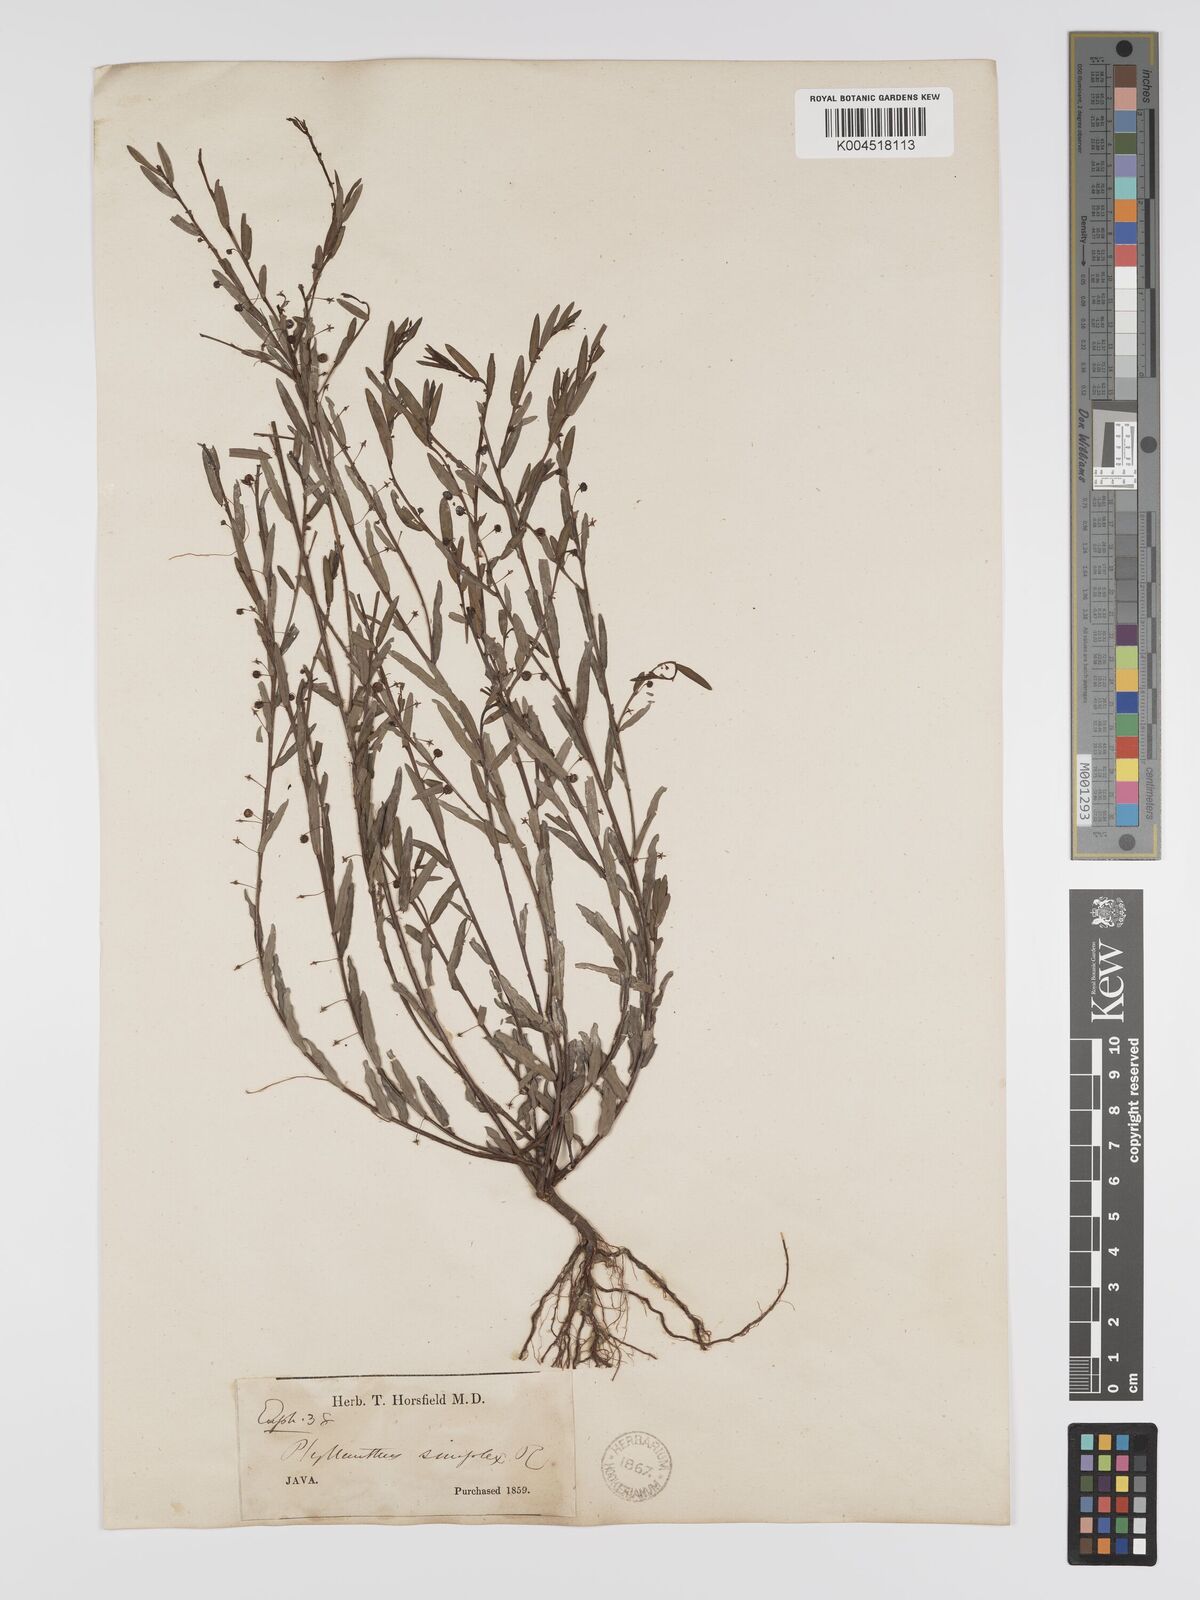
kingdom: Plantae
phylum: Tracheophyta
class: Magnoliopsida
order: Malpighiales
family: Phyllanthaceae
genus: Phyllanthus
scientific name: Phyllanthus virgatus
